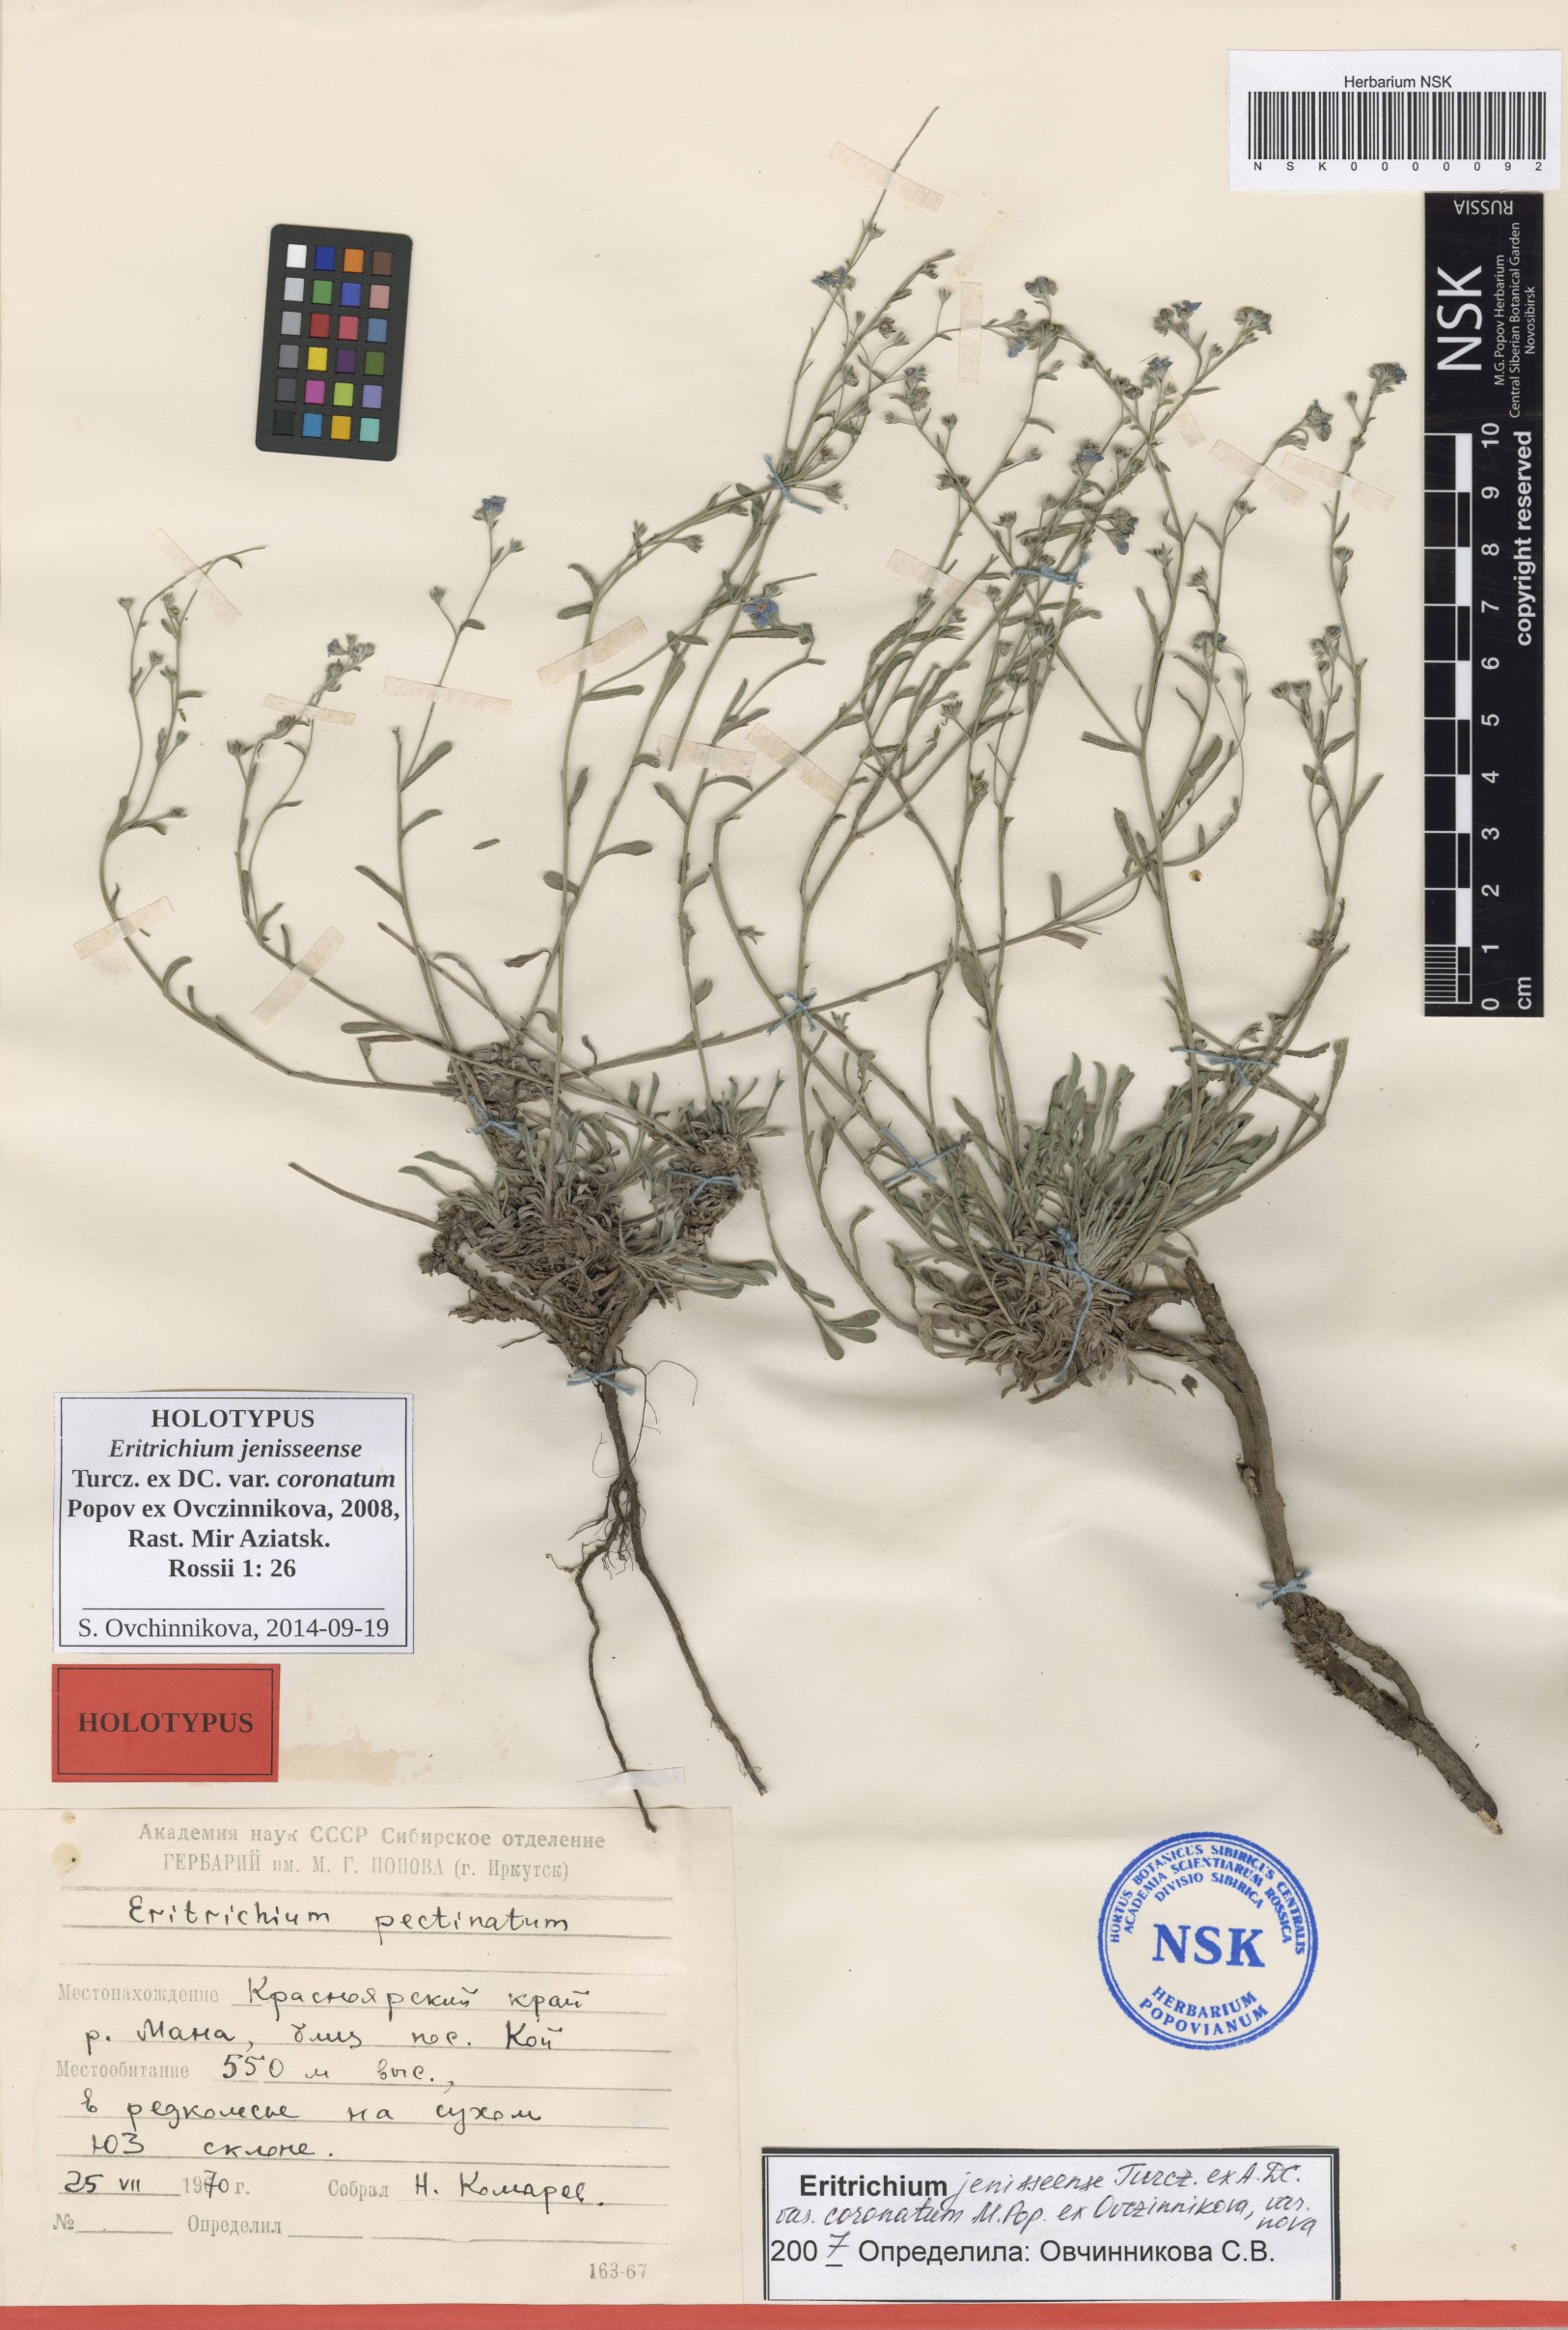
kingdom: Plantae
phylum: Tracheophyta
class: Magnoliopsida
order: Boraginales
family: Boraginaceae
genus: Eritrichium
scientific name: Eritrichium jenisseense
